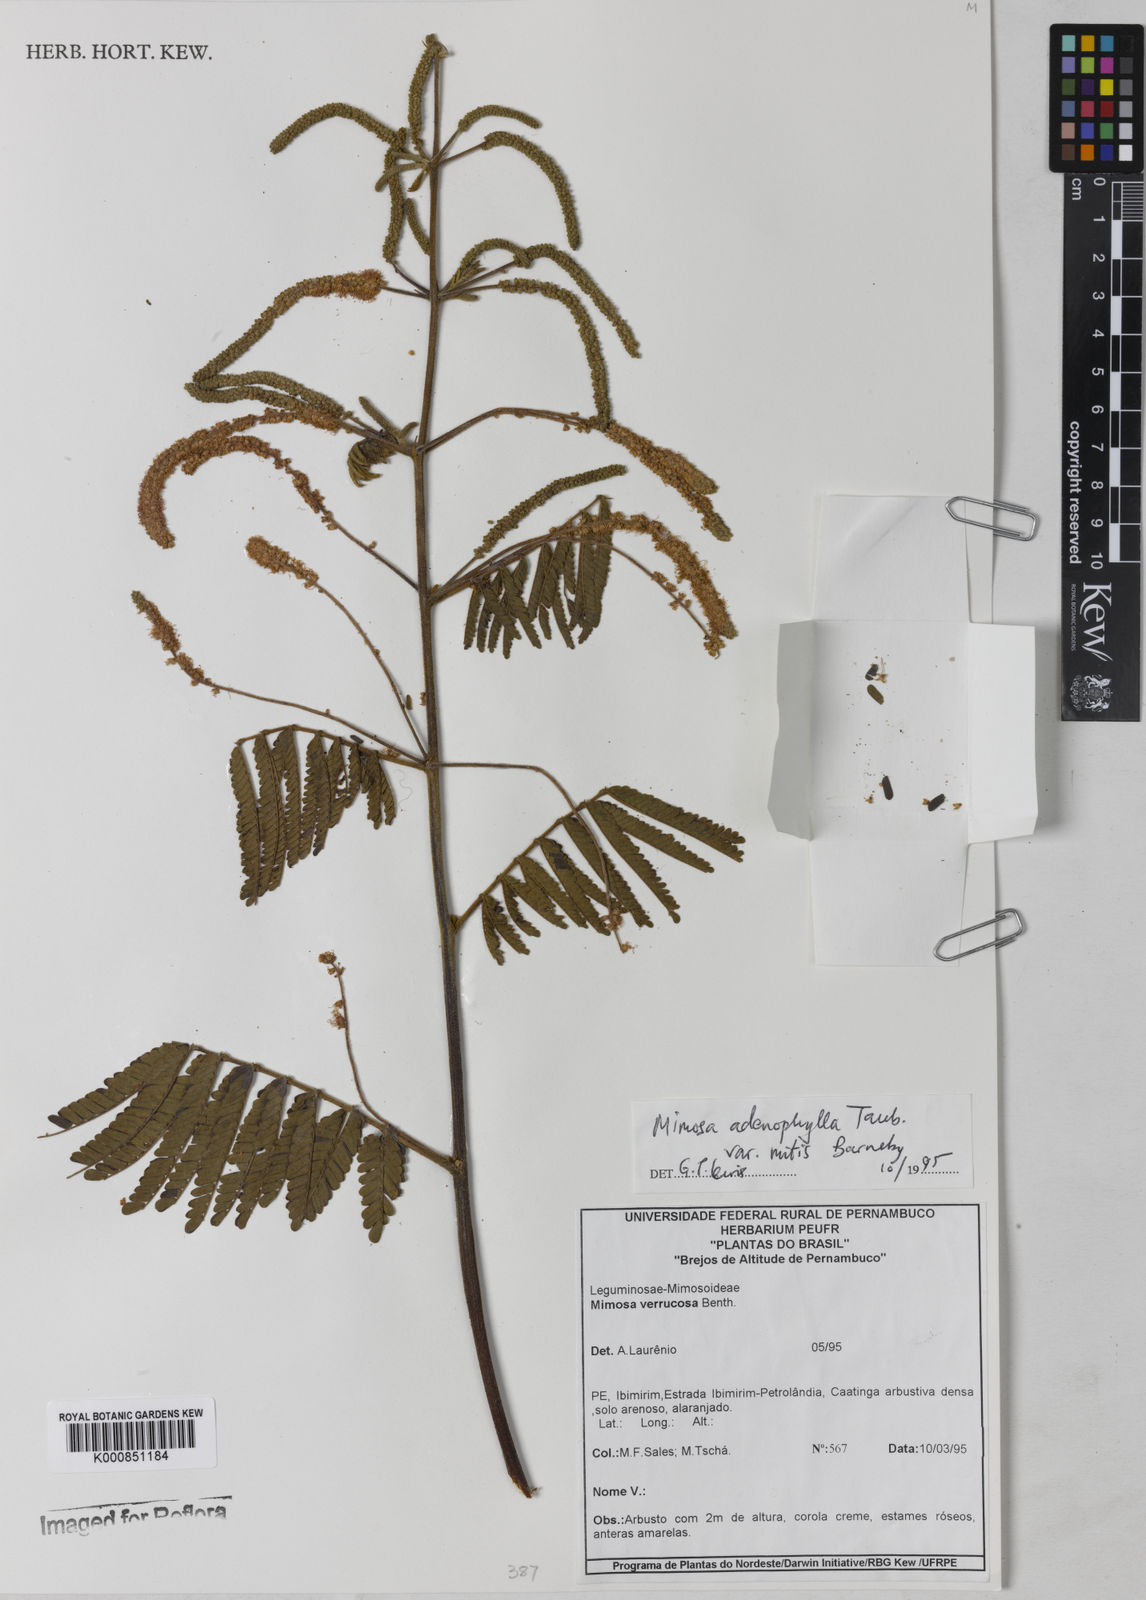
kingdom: Plantae
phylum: Tracheophyta
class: Magnoliopsida
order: Fabales
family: Fabaceae
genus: Mimosa
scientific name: Mimosa pteridifolia
